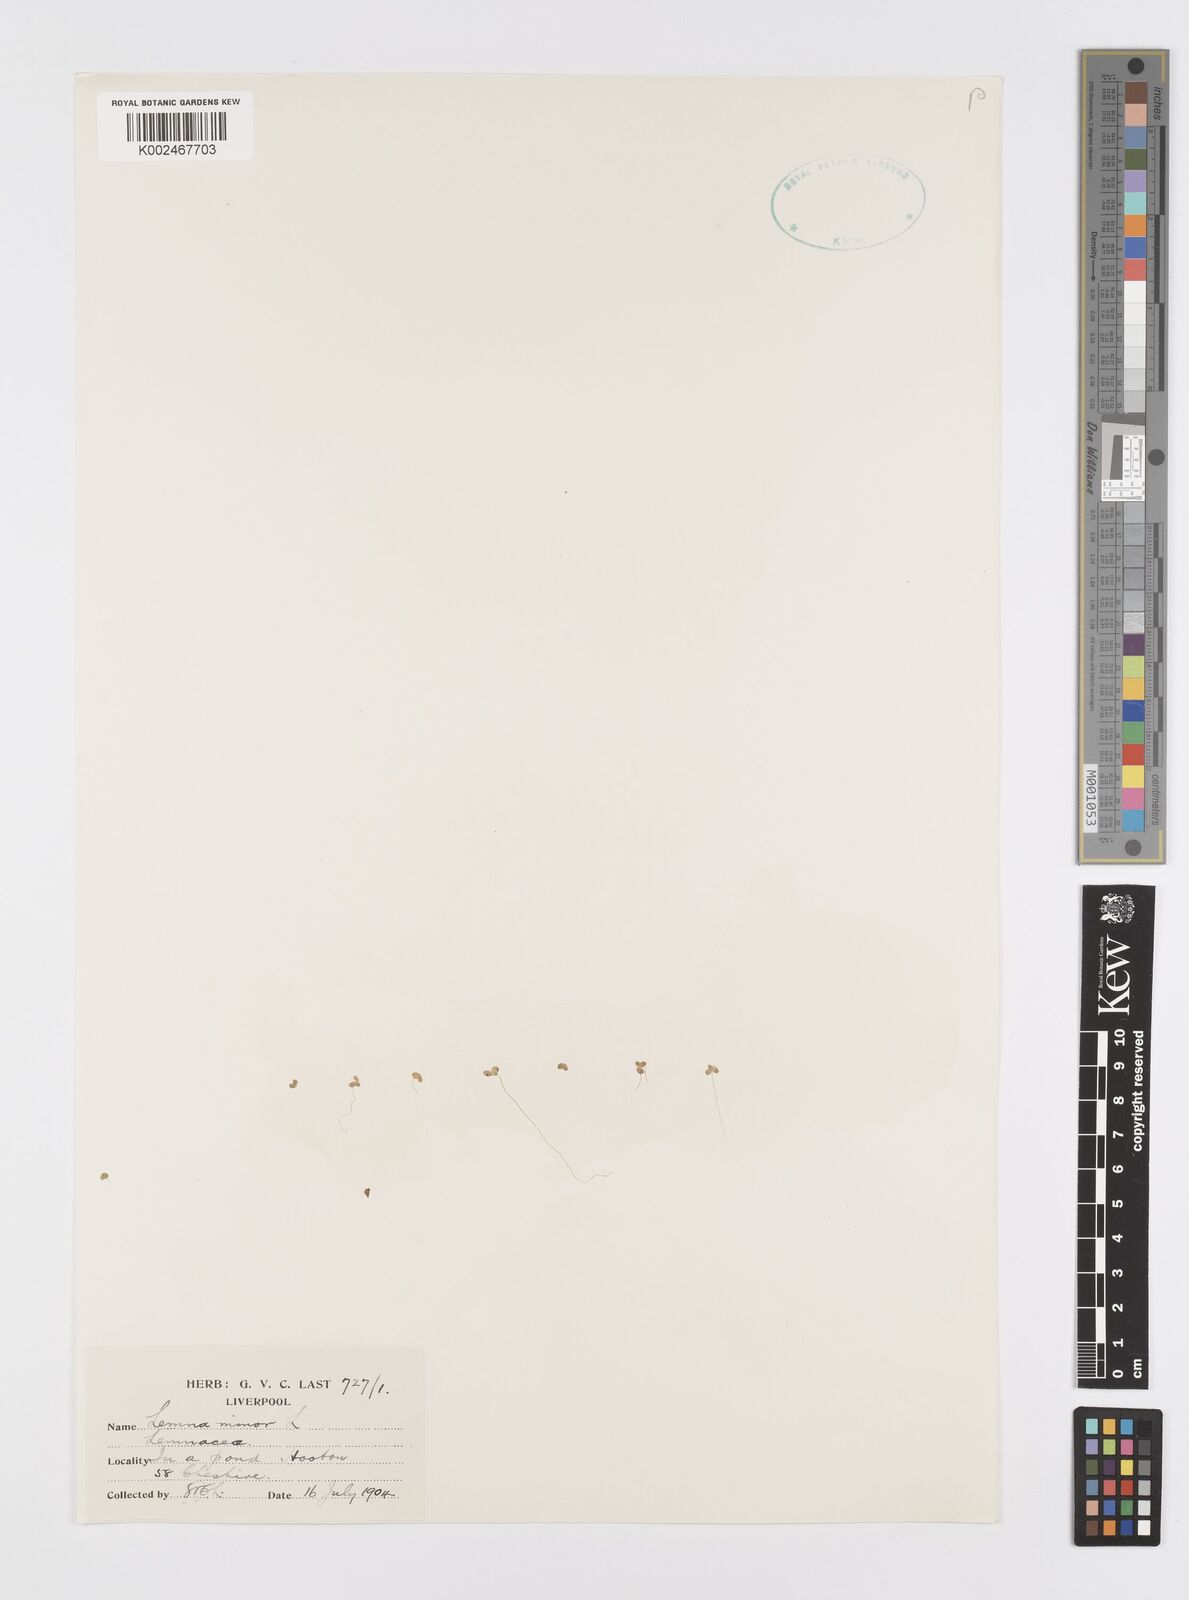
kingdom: Plantae
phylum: Tracheophyta
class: Liliopsida
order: Alismatales
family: Araceae
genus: Lemna
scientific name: Lemna minor
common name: Common duckweed
